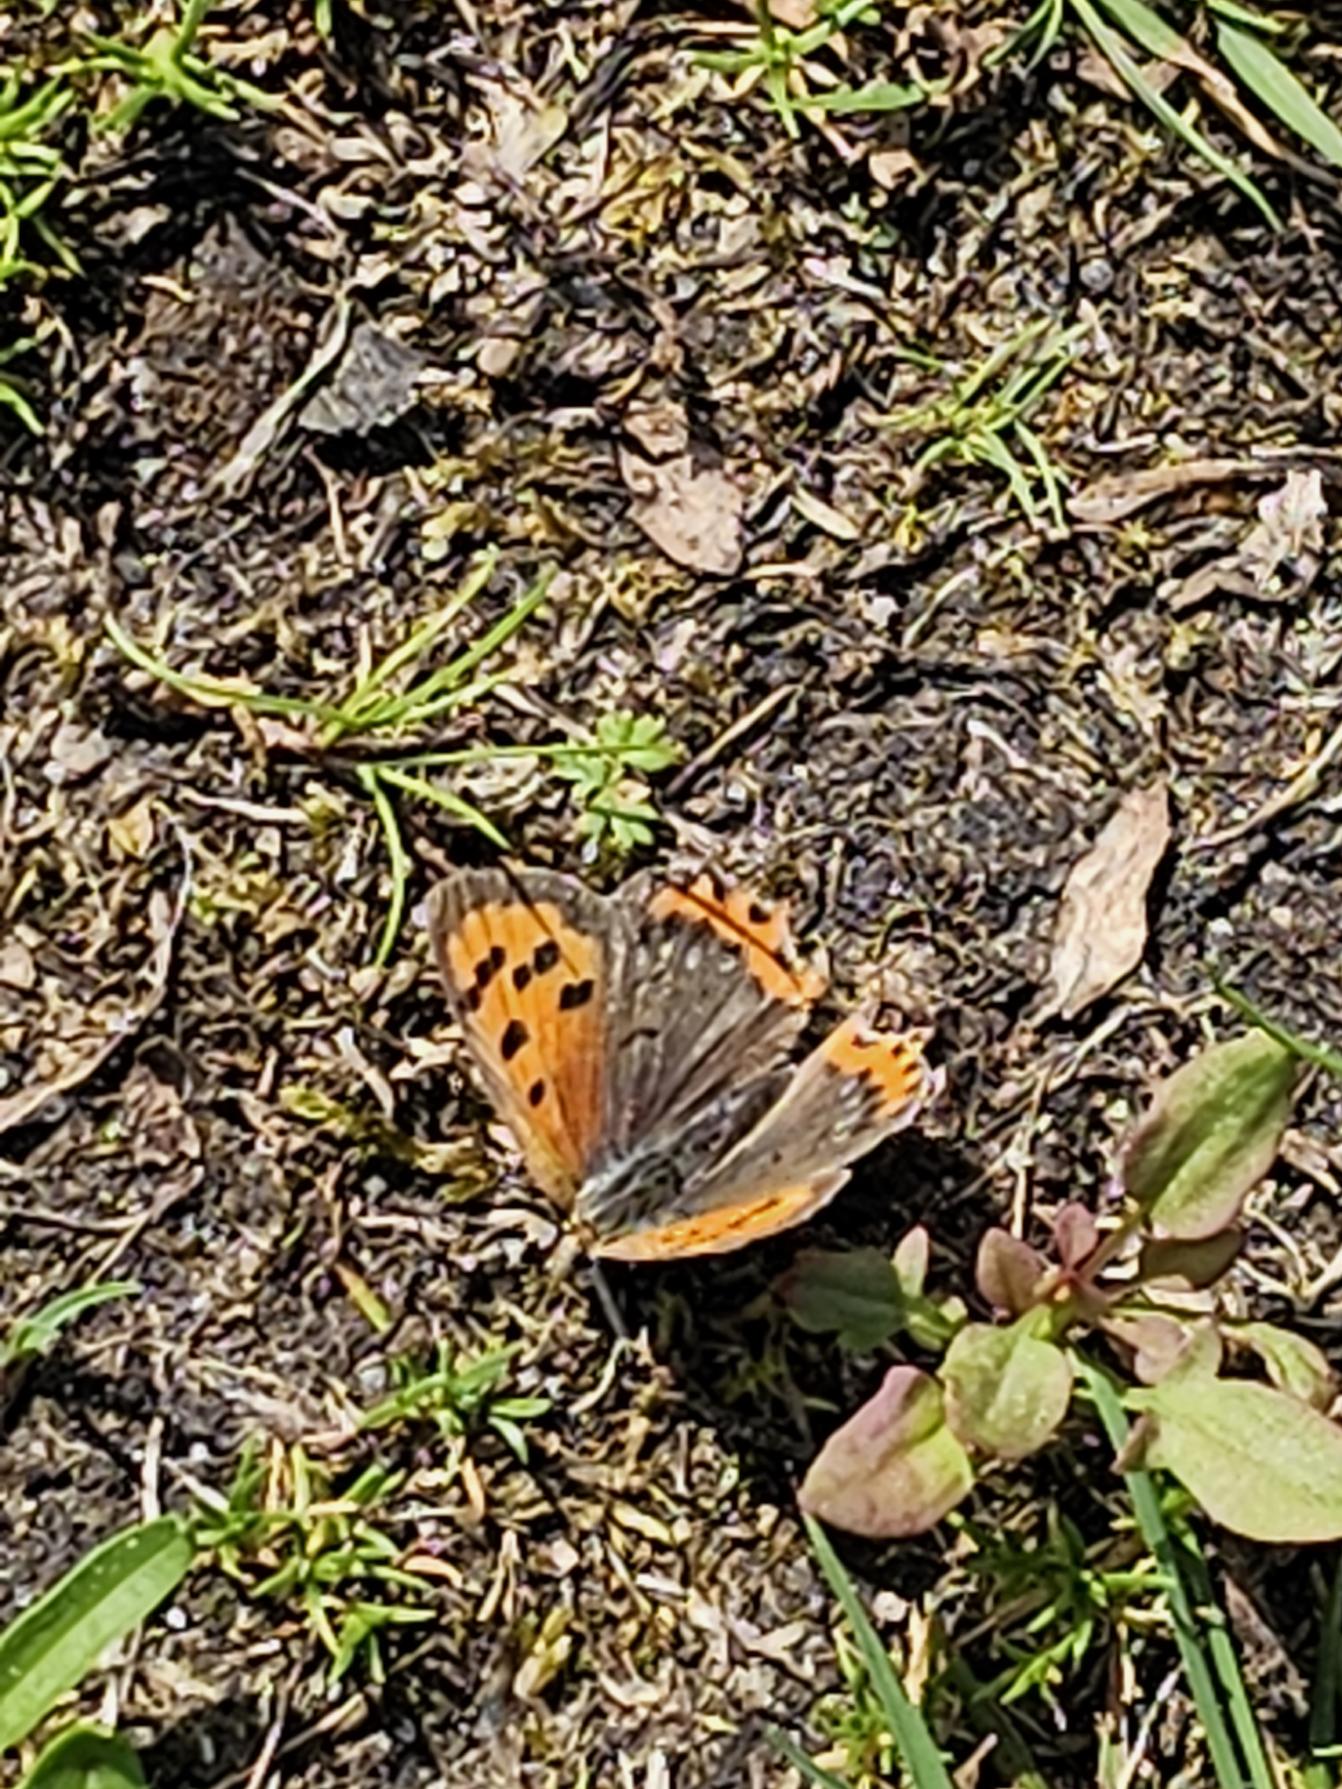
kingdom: Animalia
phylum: Arthropoda
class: Insecta
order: Lepidoptera
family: Lycaenidae
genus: Lycaena
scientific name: Lycaena phlaeas
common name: Lille ildfugl
